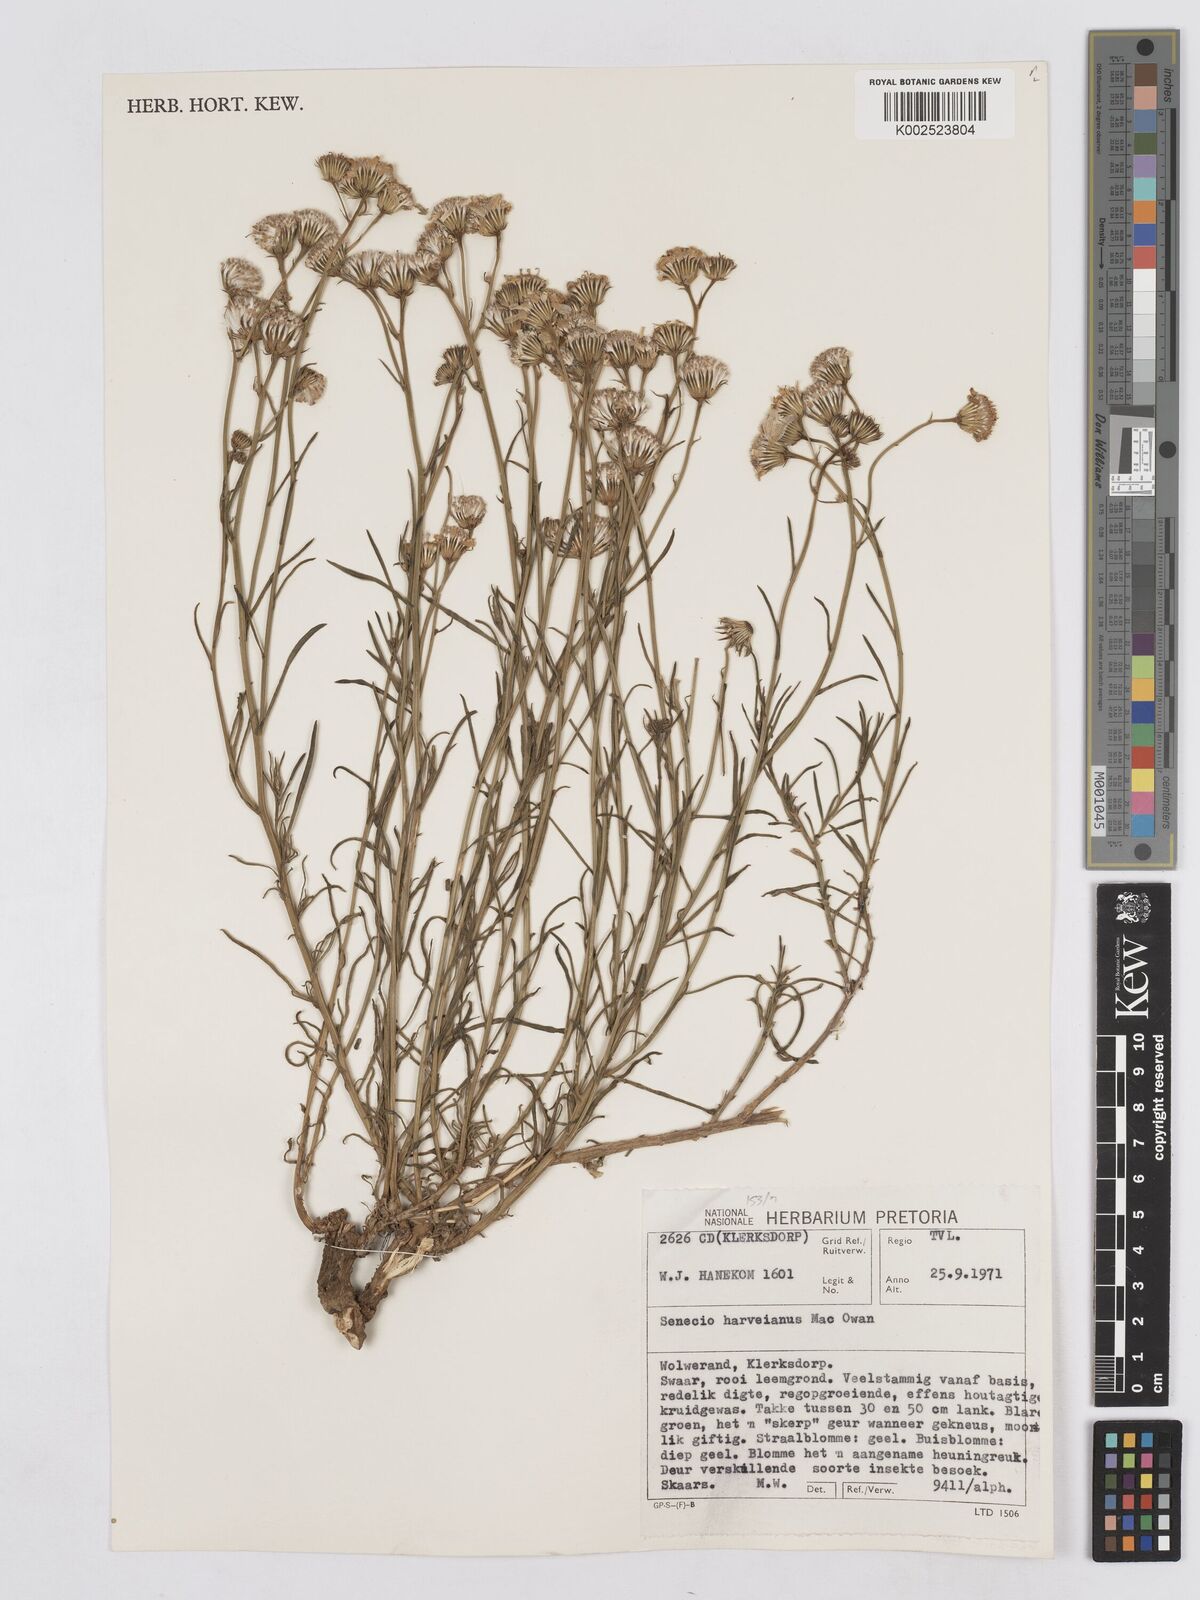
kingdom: Plantae
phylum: Tracheophyta
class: Magnoliopsida
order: Asterales
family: Asteraceae
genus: Senecio
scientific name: Senecio harveyanus
